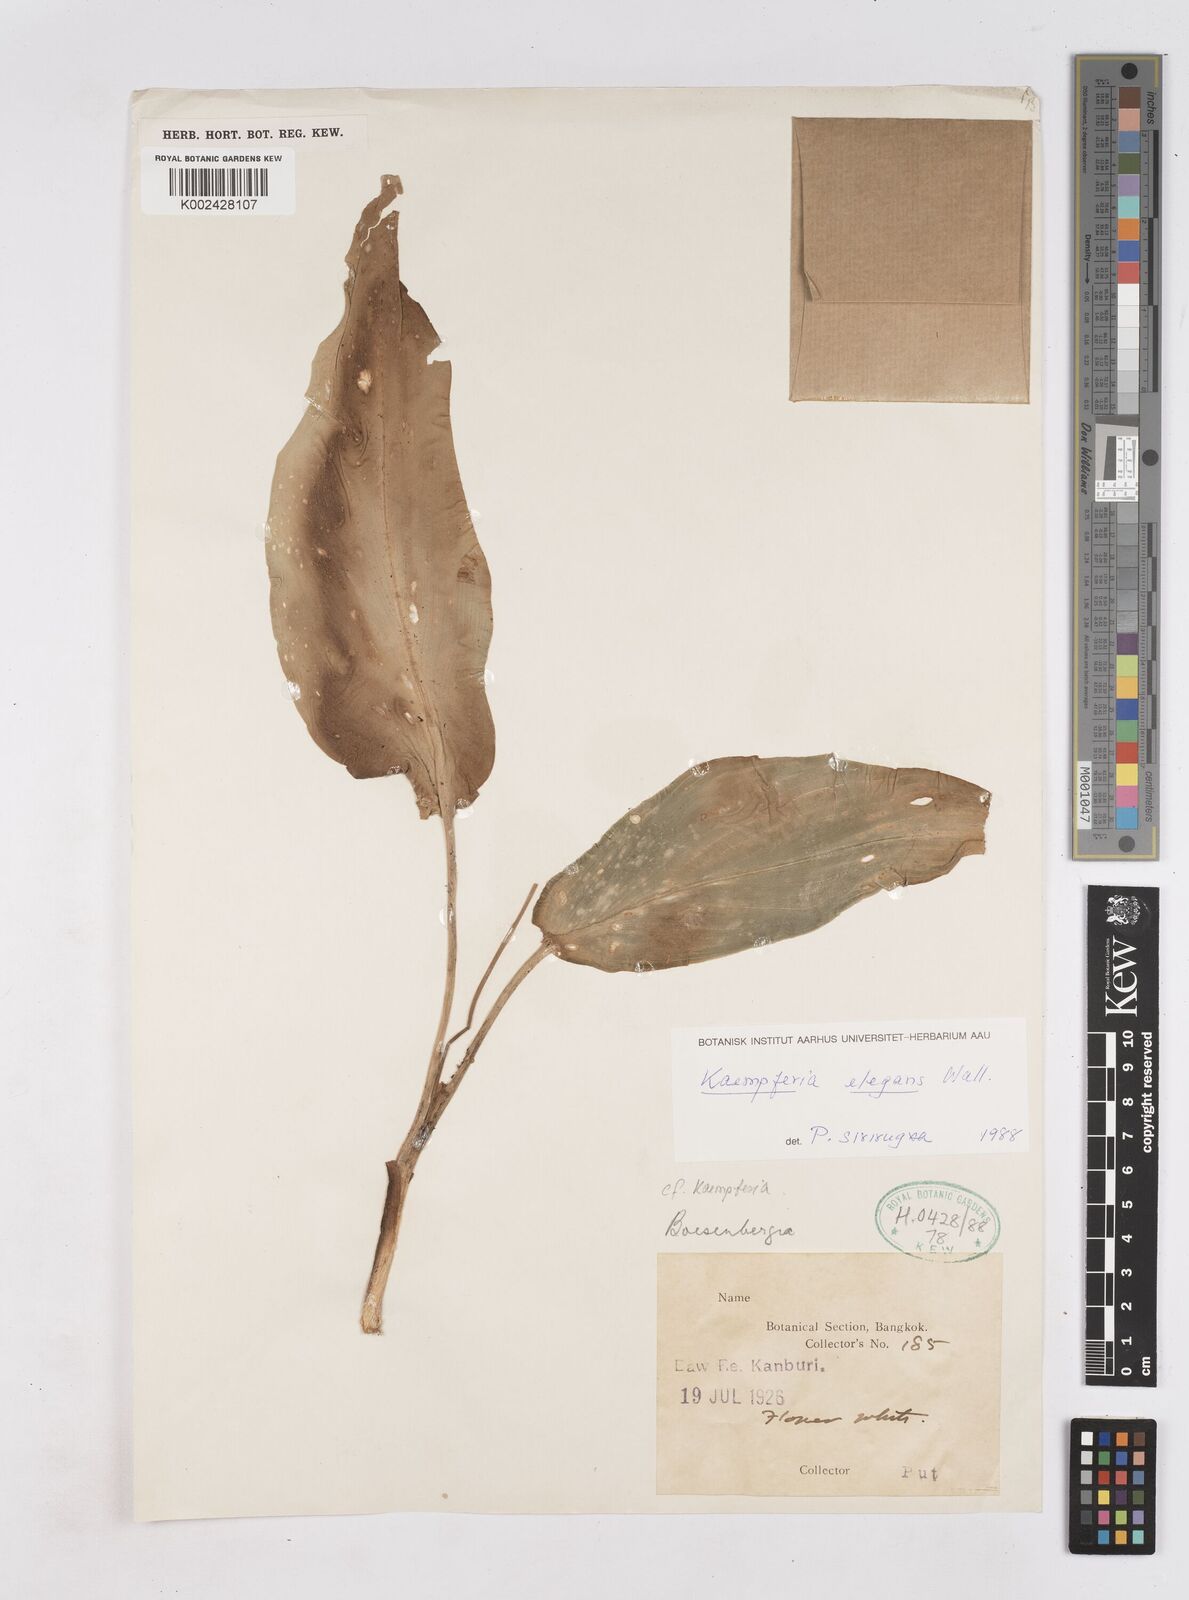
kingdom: Plantae
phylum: Tracheophyta
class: Liliopsida
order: Zingiberales
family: Zingiberaceae
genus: Kaempferia
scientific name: Kaempferia elegans
